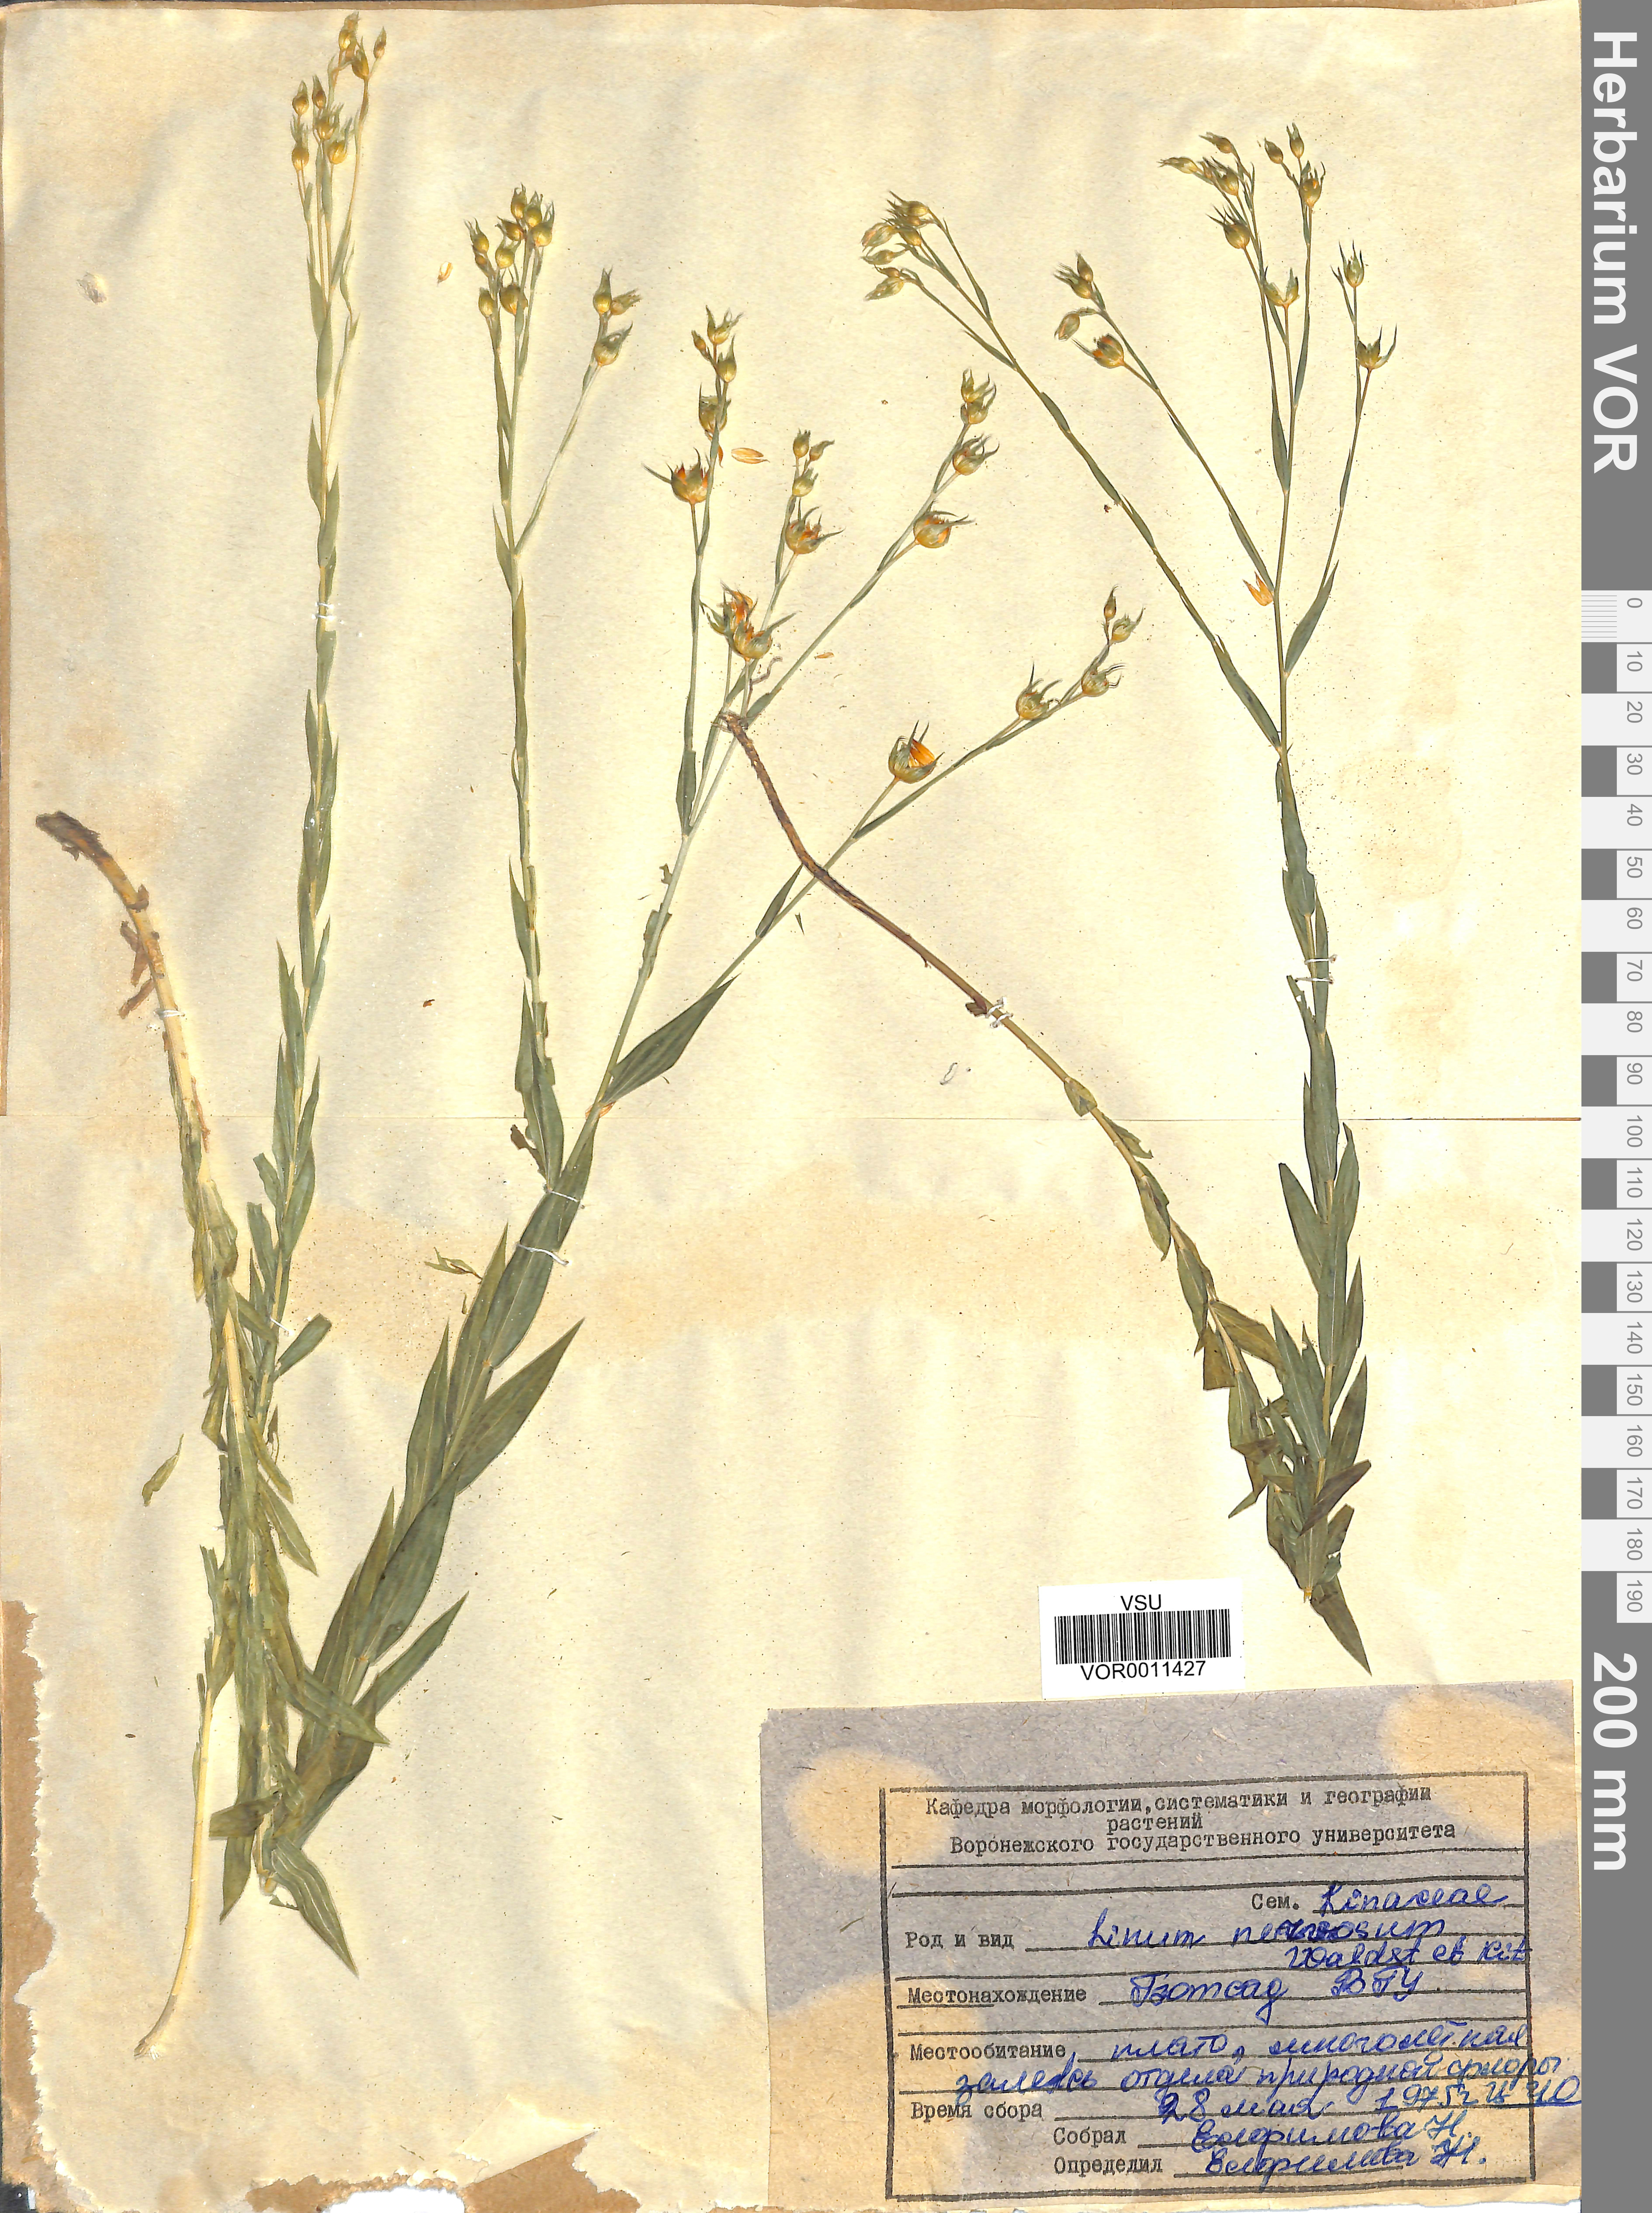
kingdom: Plantae
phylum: Tracheophyta
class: Magnoliopsida
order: Malpighiales
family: Linaceae
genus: Linum
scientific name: Linum nervosum
